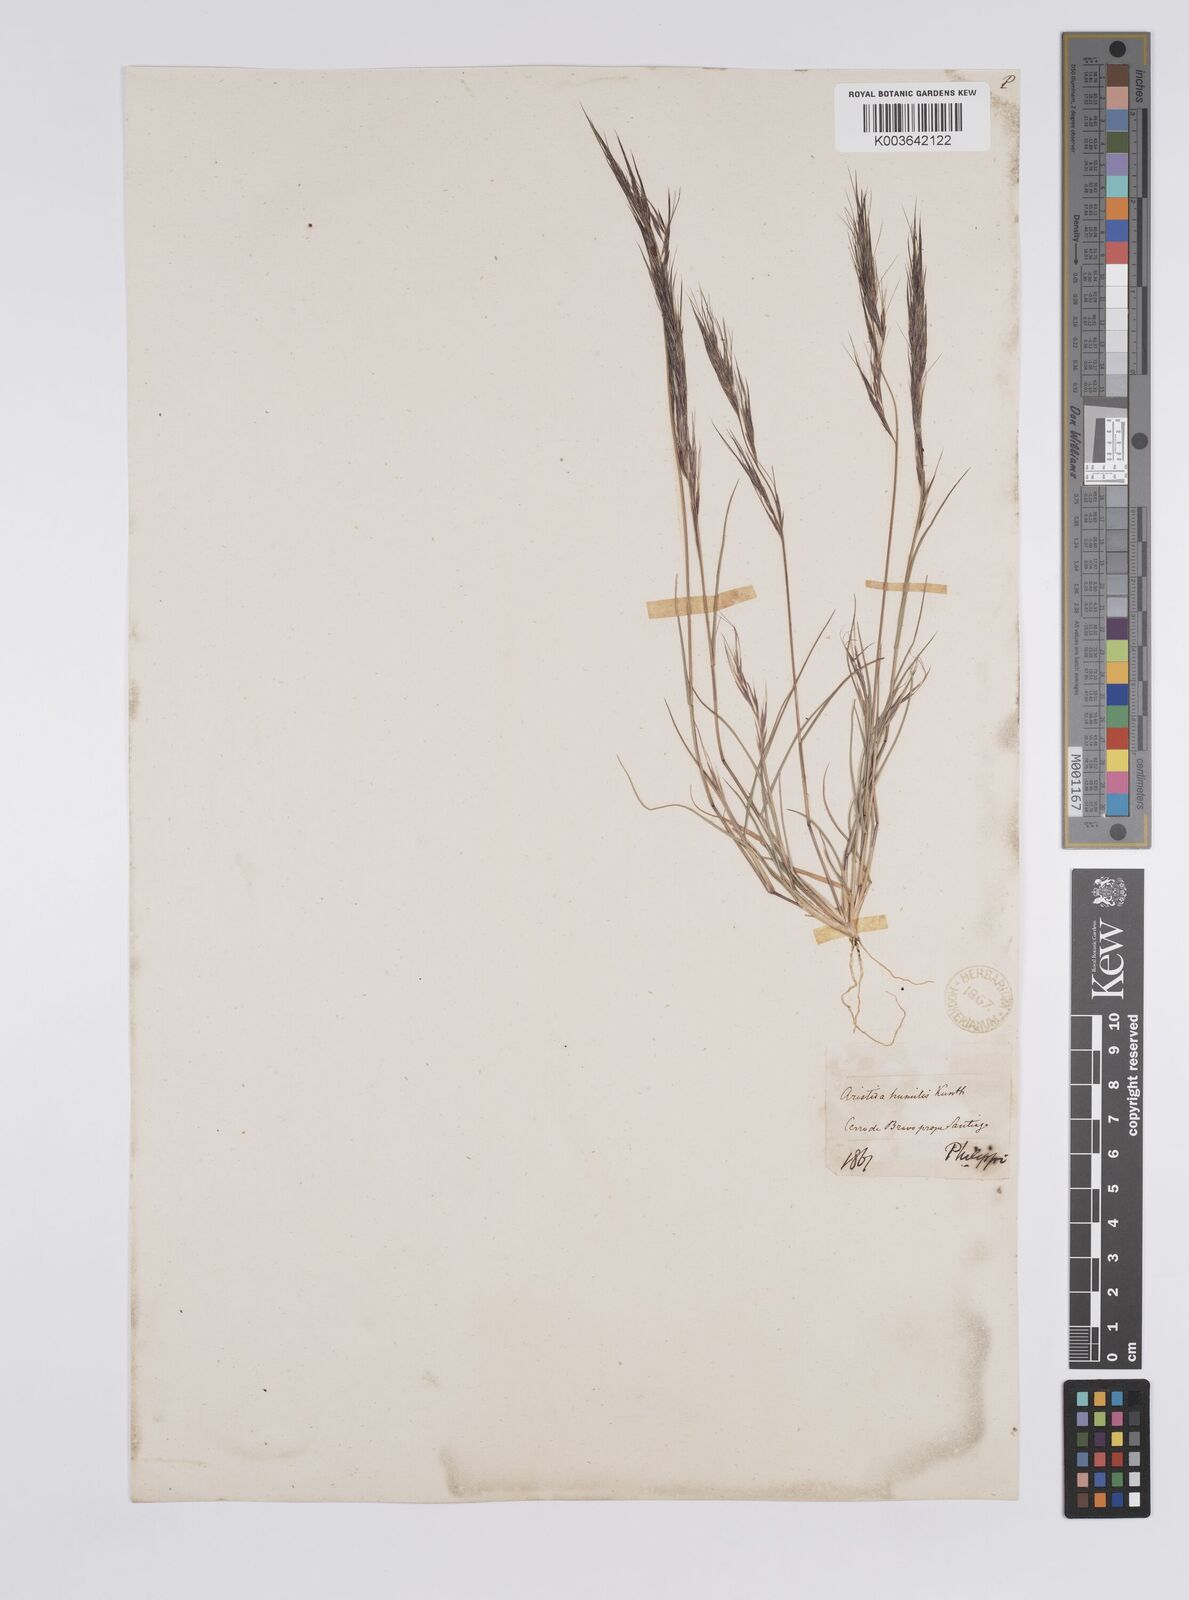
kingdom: Plantae
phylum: Tracheophyta
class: Liliopsida
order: Poales
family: Poaceae
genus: Aristida
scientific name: Aristida adscensionis
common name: Sixweeks threeawn
